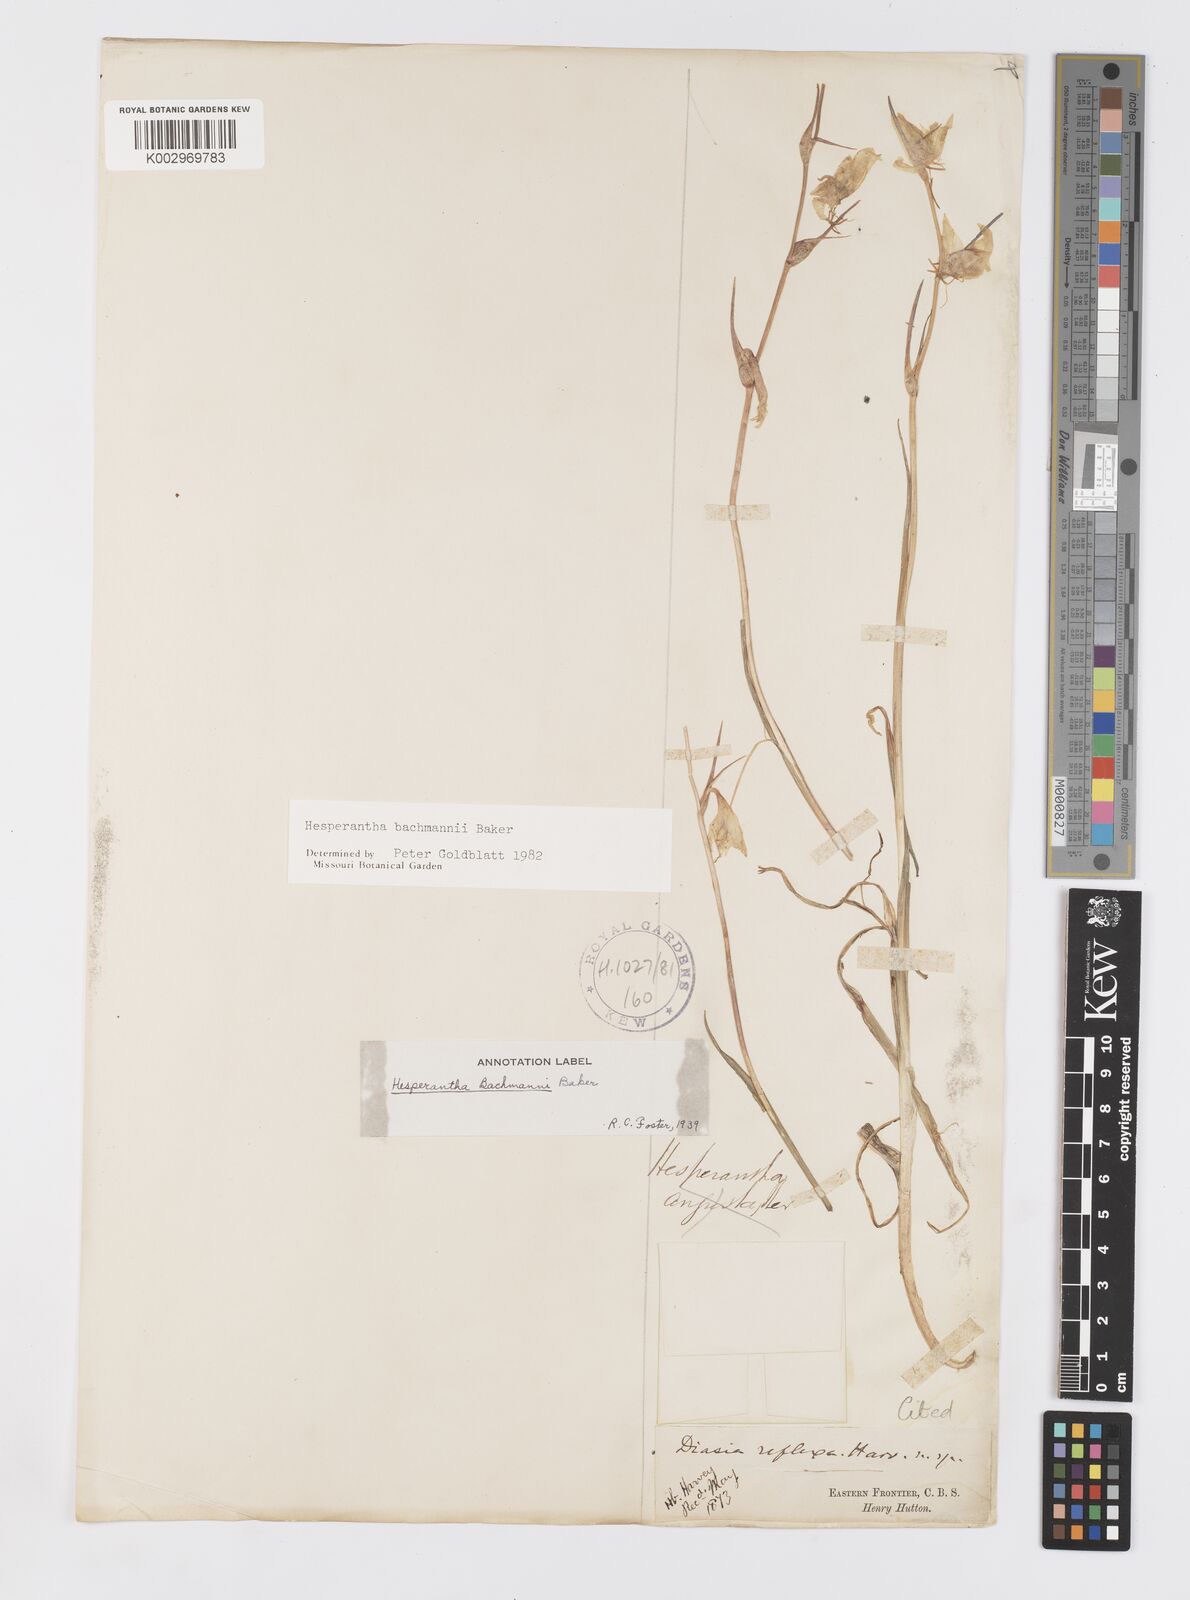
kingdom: Plantae
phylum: Tracheophyta
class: Liliopsida
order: Asparagales
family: Iridaceae
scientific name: Iridaceae
